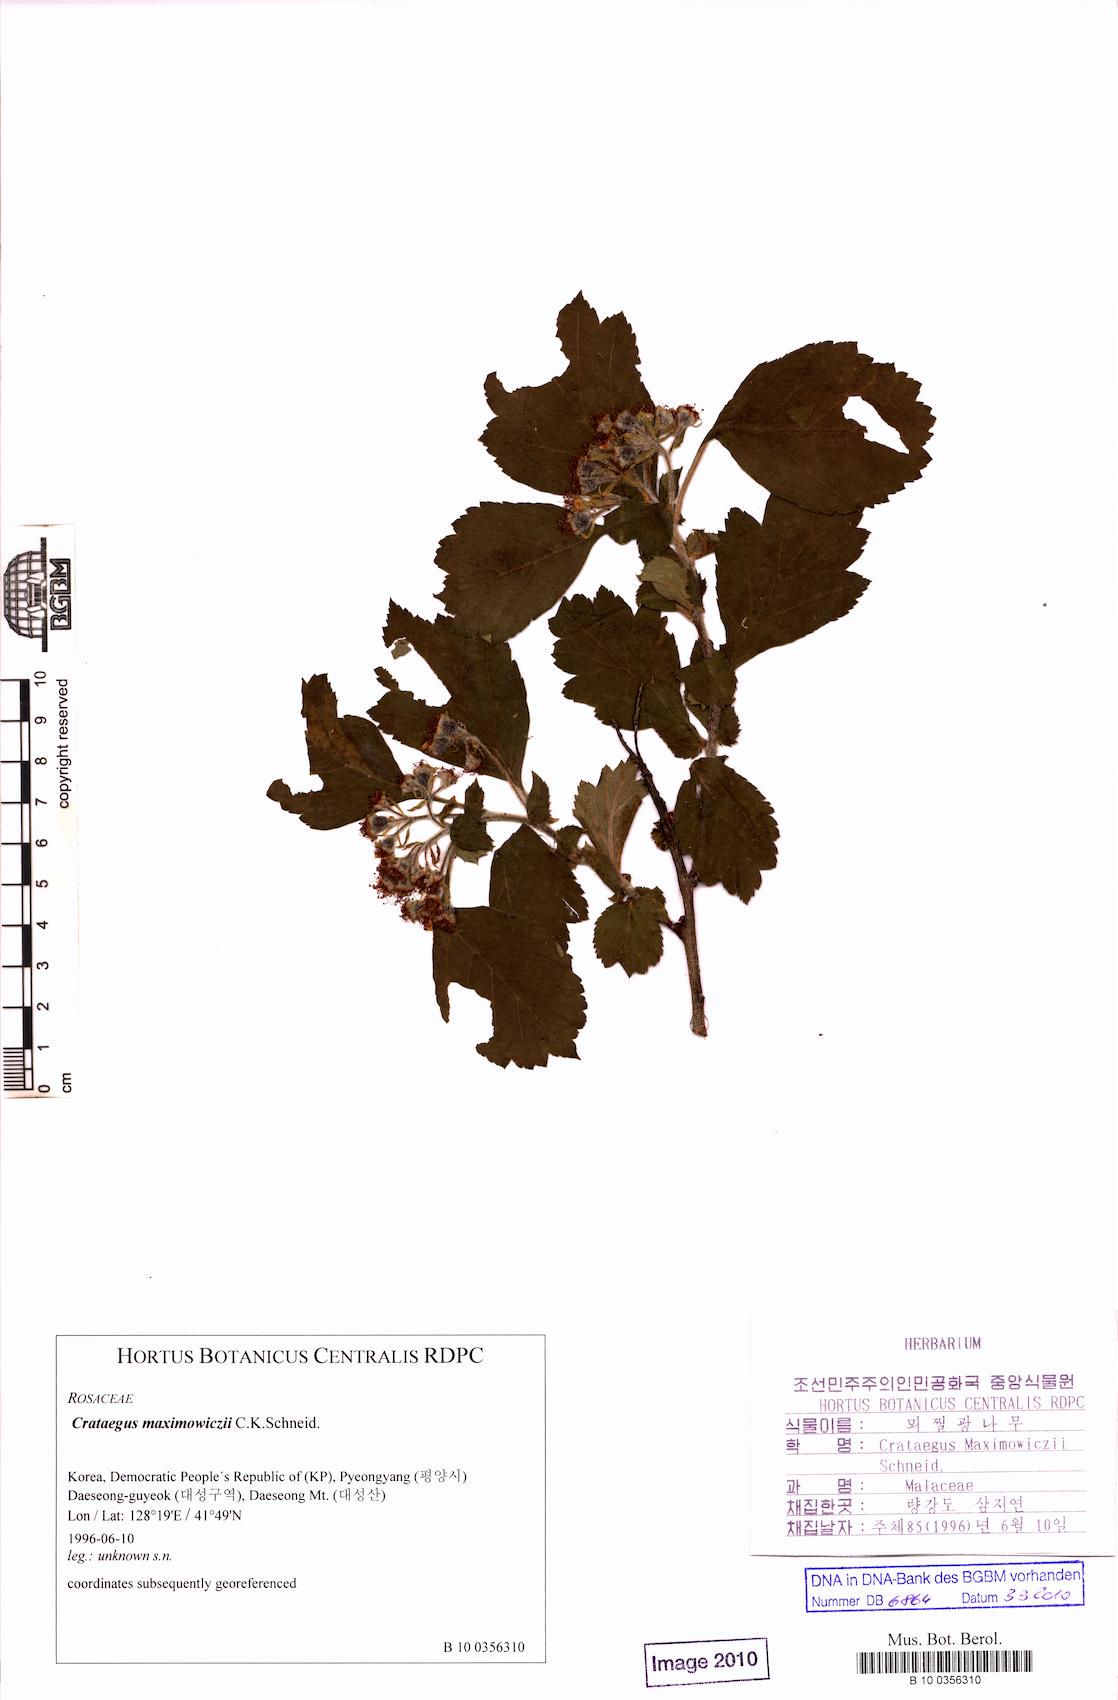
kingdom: Plantae
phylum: Tracheophyta
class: Magnoliopsida
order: Rosales
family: Rosaceae
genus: Crataegus
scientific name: Crataegus maximowiczii
